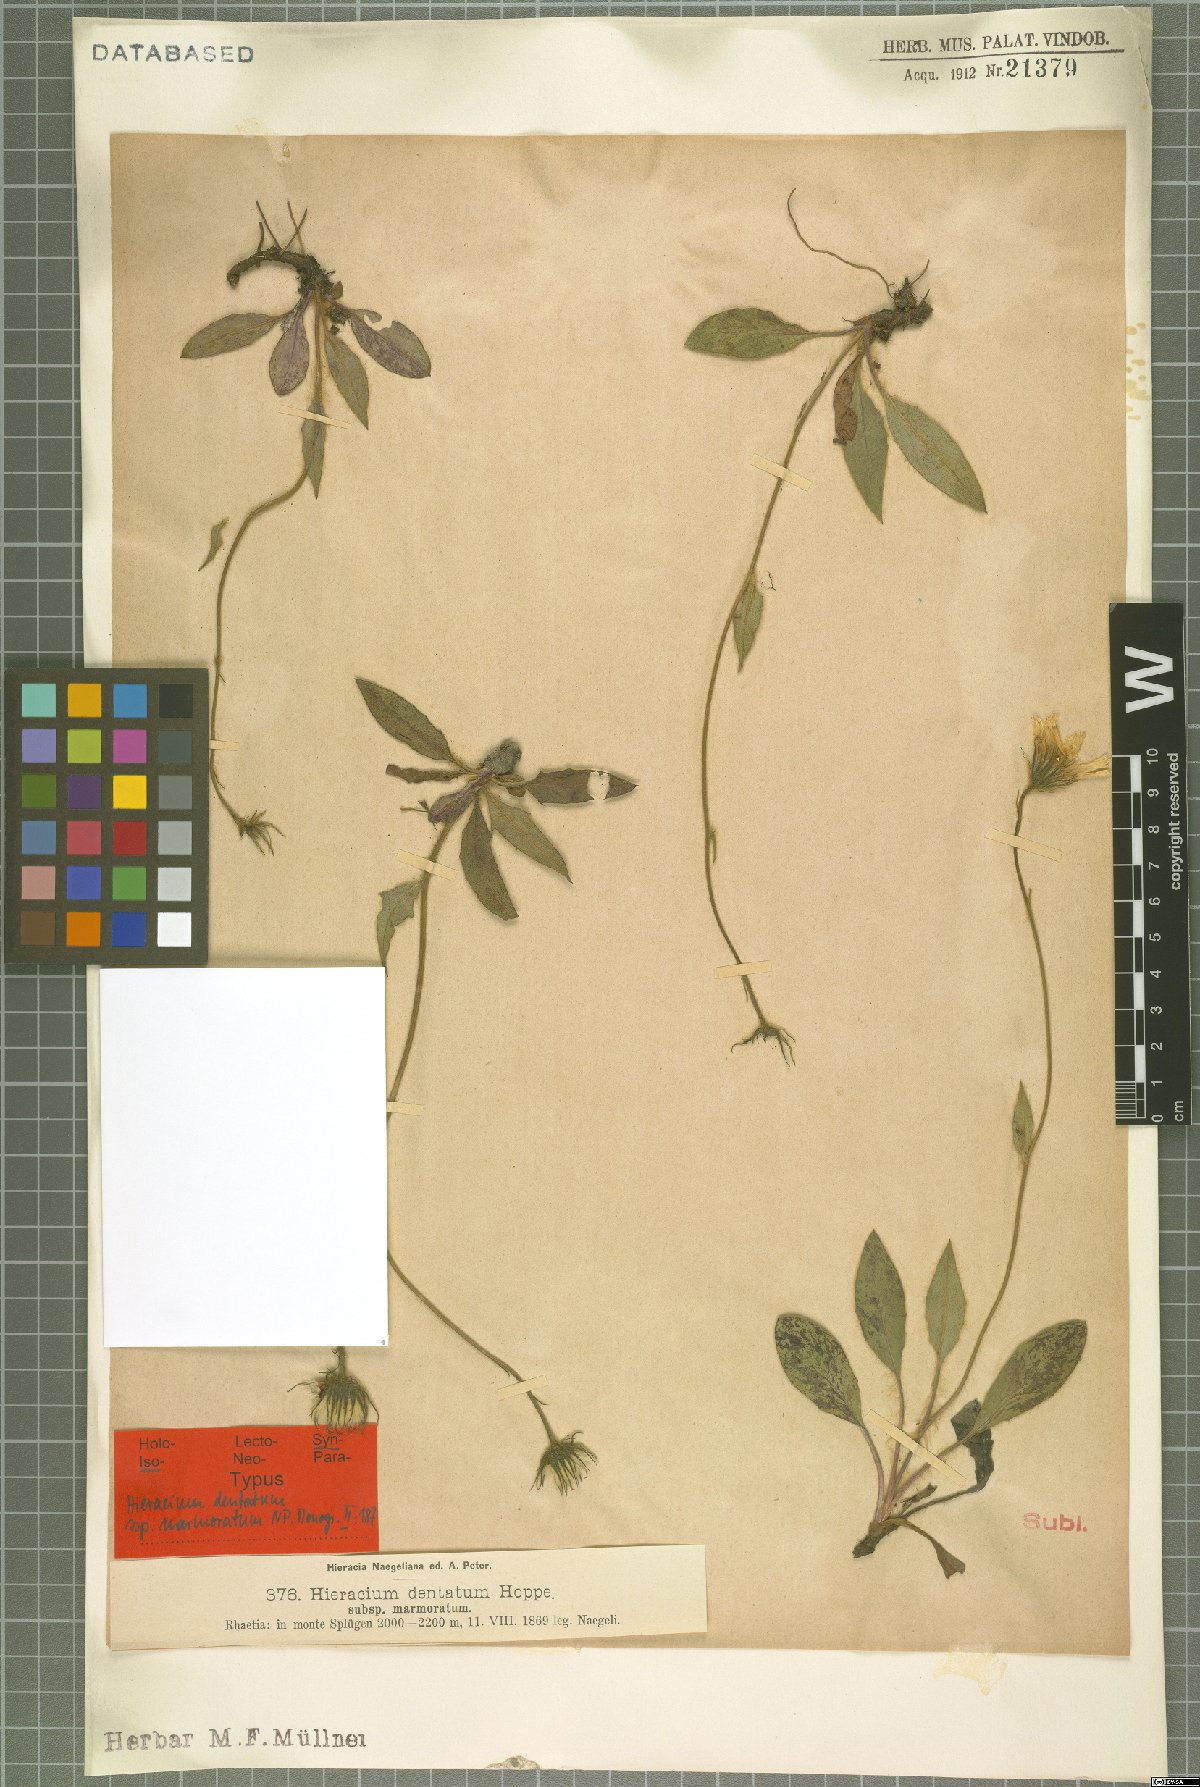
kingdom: Plantae
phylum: Tracheophyta
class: Magnoliopsida
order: Asterales
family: Asteraceae
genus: Hieracium
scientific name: Hieracium dentatum
